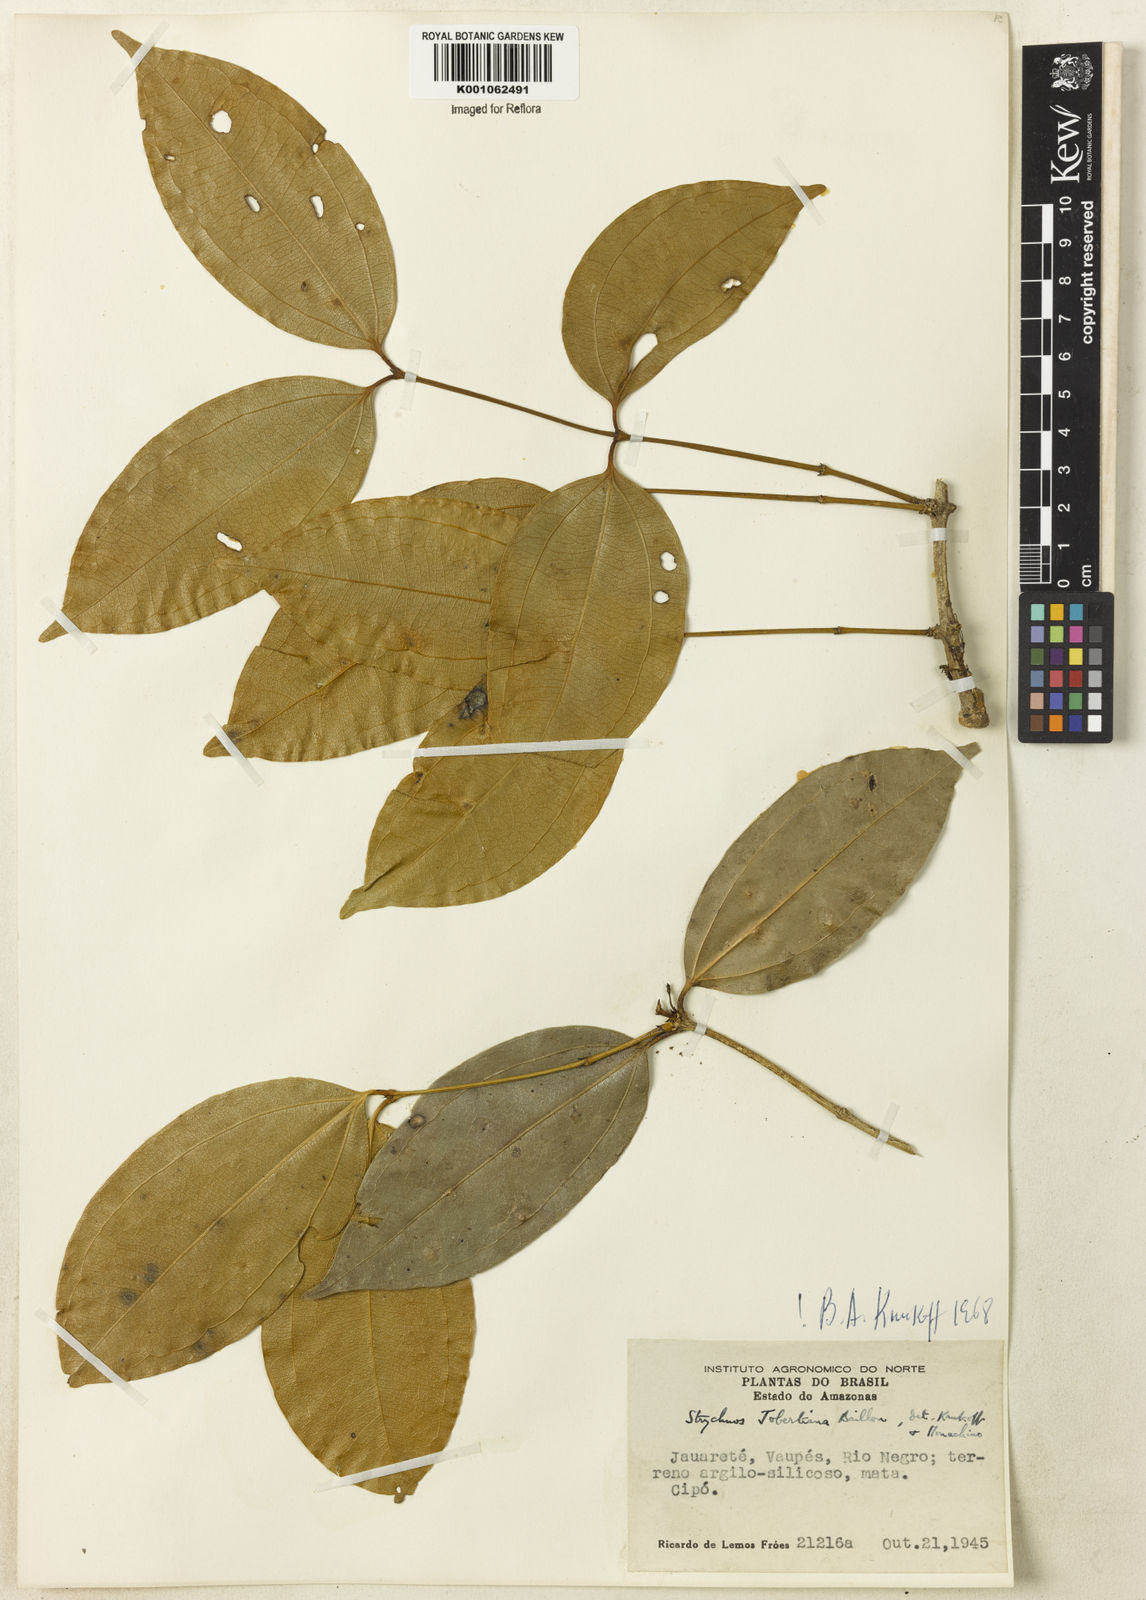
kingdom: Plantae
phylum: Tracheophyta
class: Magnoliopsida
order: Gentianales
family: Loganiaceae
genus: Strychnos
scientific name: Strychnos jobertiana
